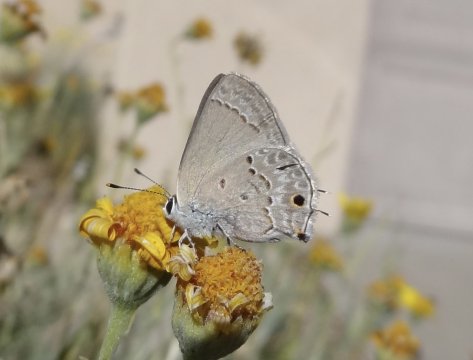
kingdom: Animalia
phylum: Arthropoda
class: Insecta
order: Lepidoptera
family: Lycaenidae
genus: Callicista
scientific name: Callicista columella
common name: Mallow Scrub-Hairstreak
